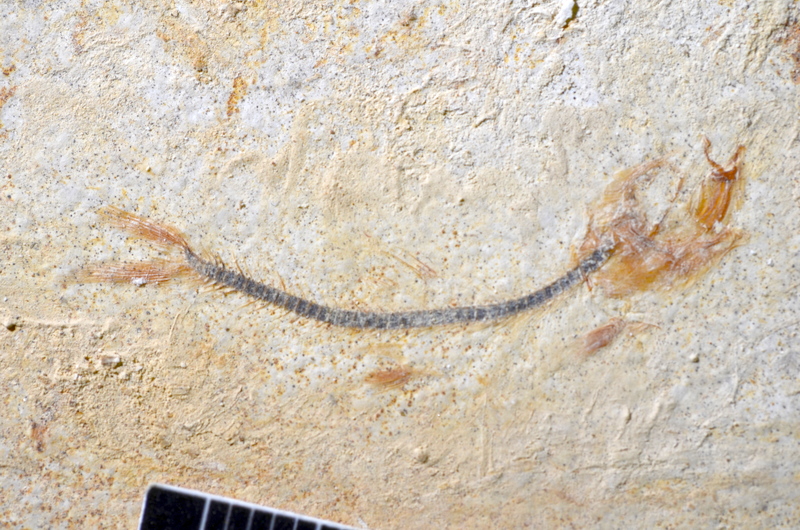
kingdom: Animalia
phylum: Chordata
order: Salmoniformes
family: Orthogonikleithridae
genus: Orthogonikleithrus
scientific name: Orthogonikleithrus hoelli
